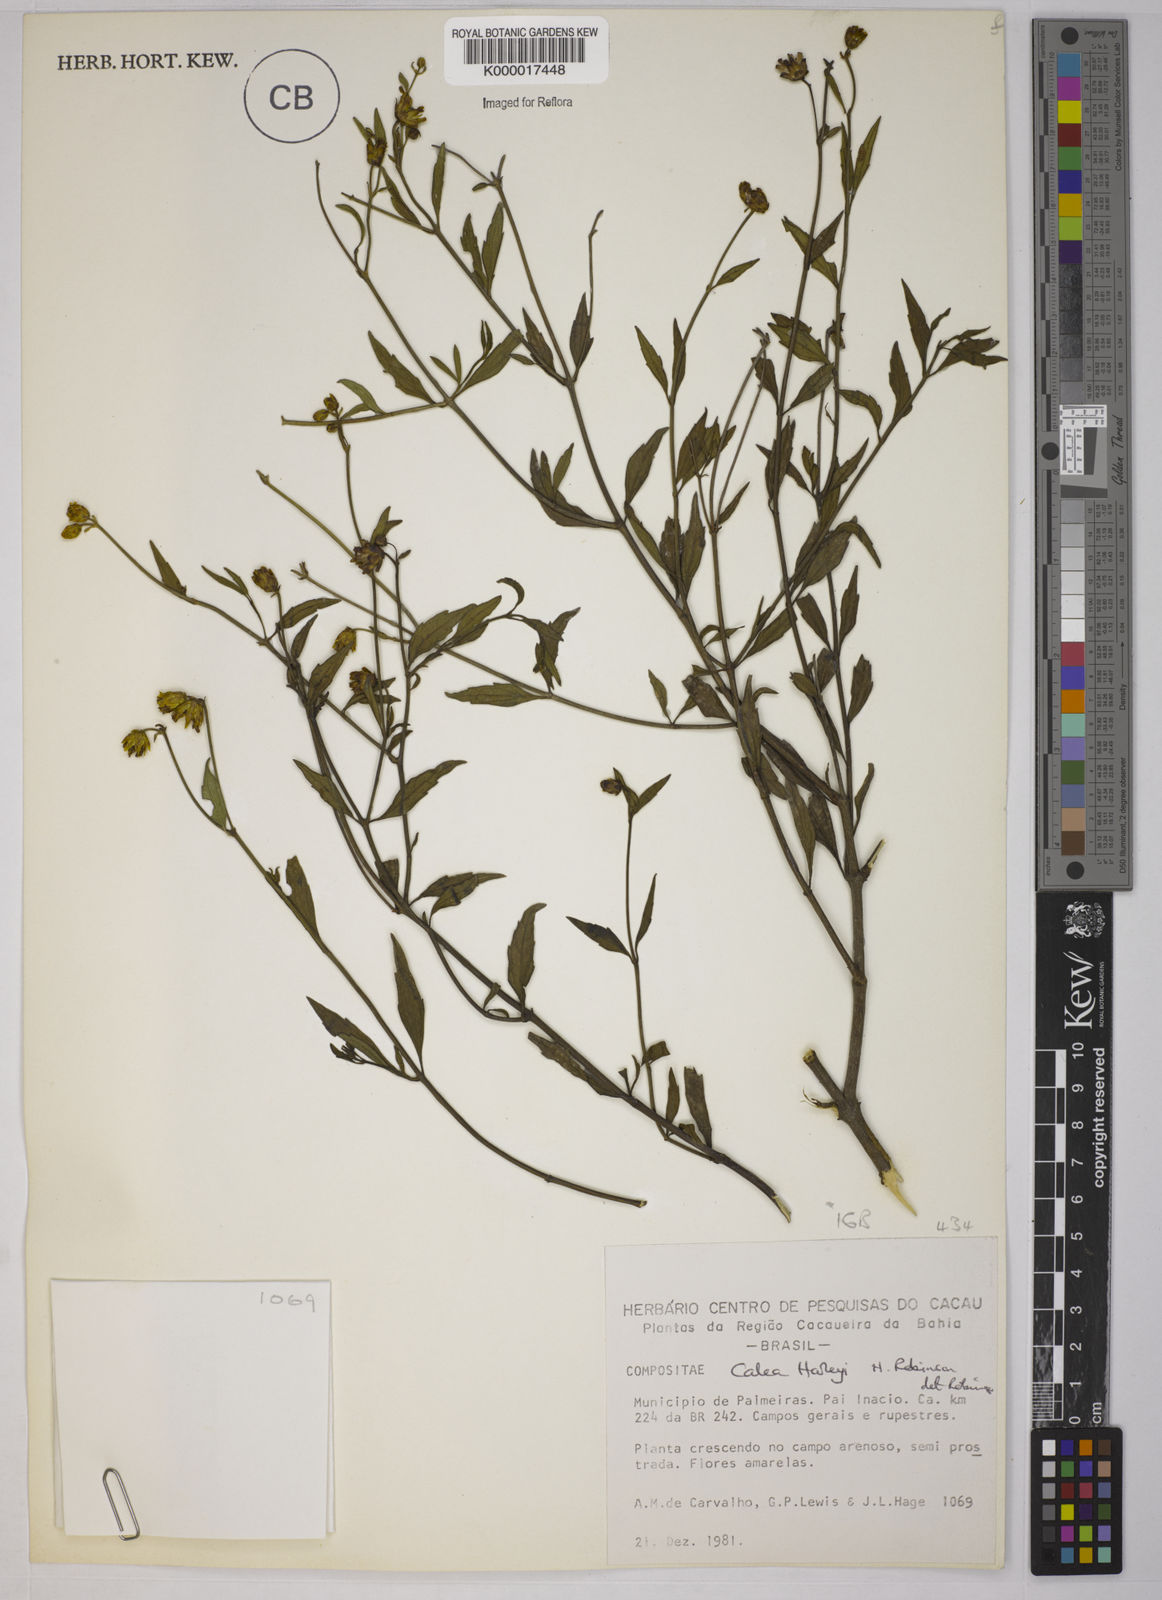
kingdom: Plantae
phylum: Tracheophyta
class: Magnoliopsida
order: Asterales
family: Asteraceae
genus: Calea
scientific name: Calea harleyi
